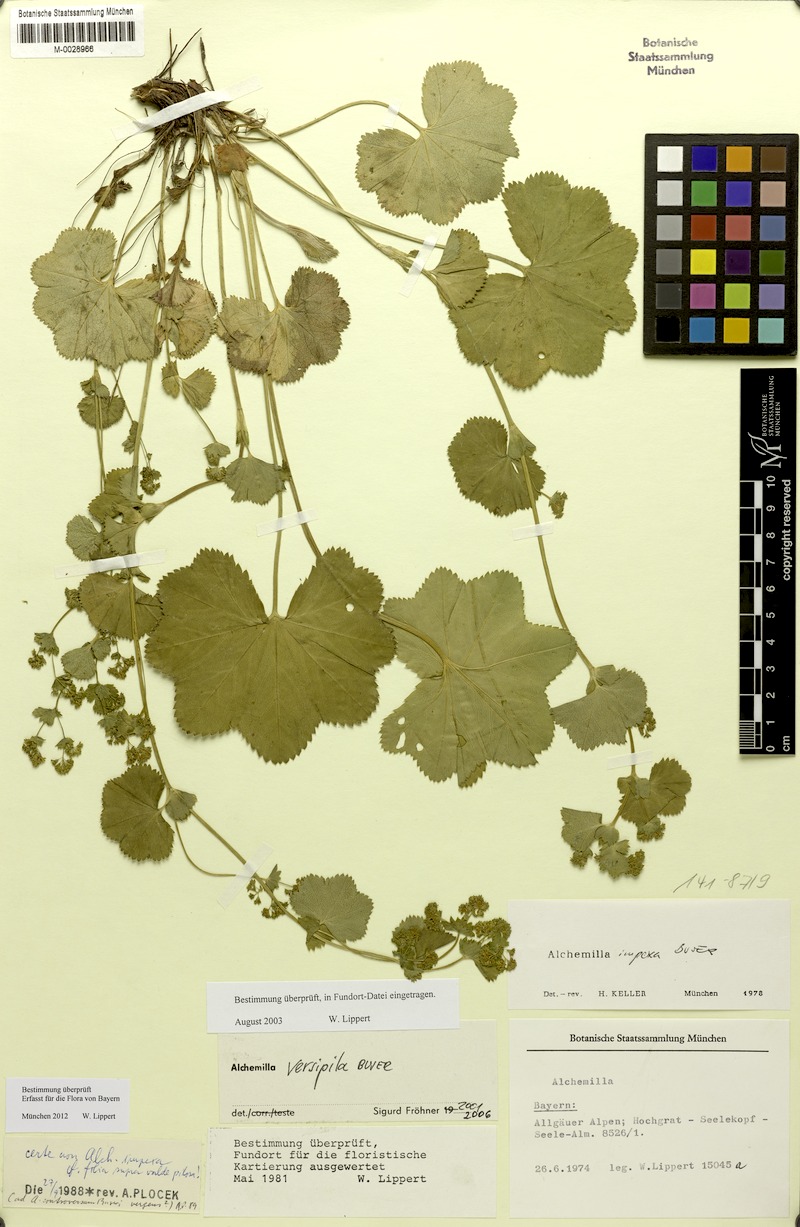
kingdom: Plantae
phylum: Tracheophyta
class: Magnoliopsida
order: Rosales
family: Rosaceae
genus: Alchemilla
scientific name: Alchemilla versipila
